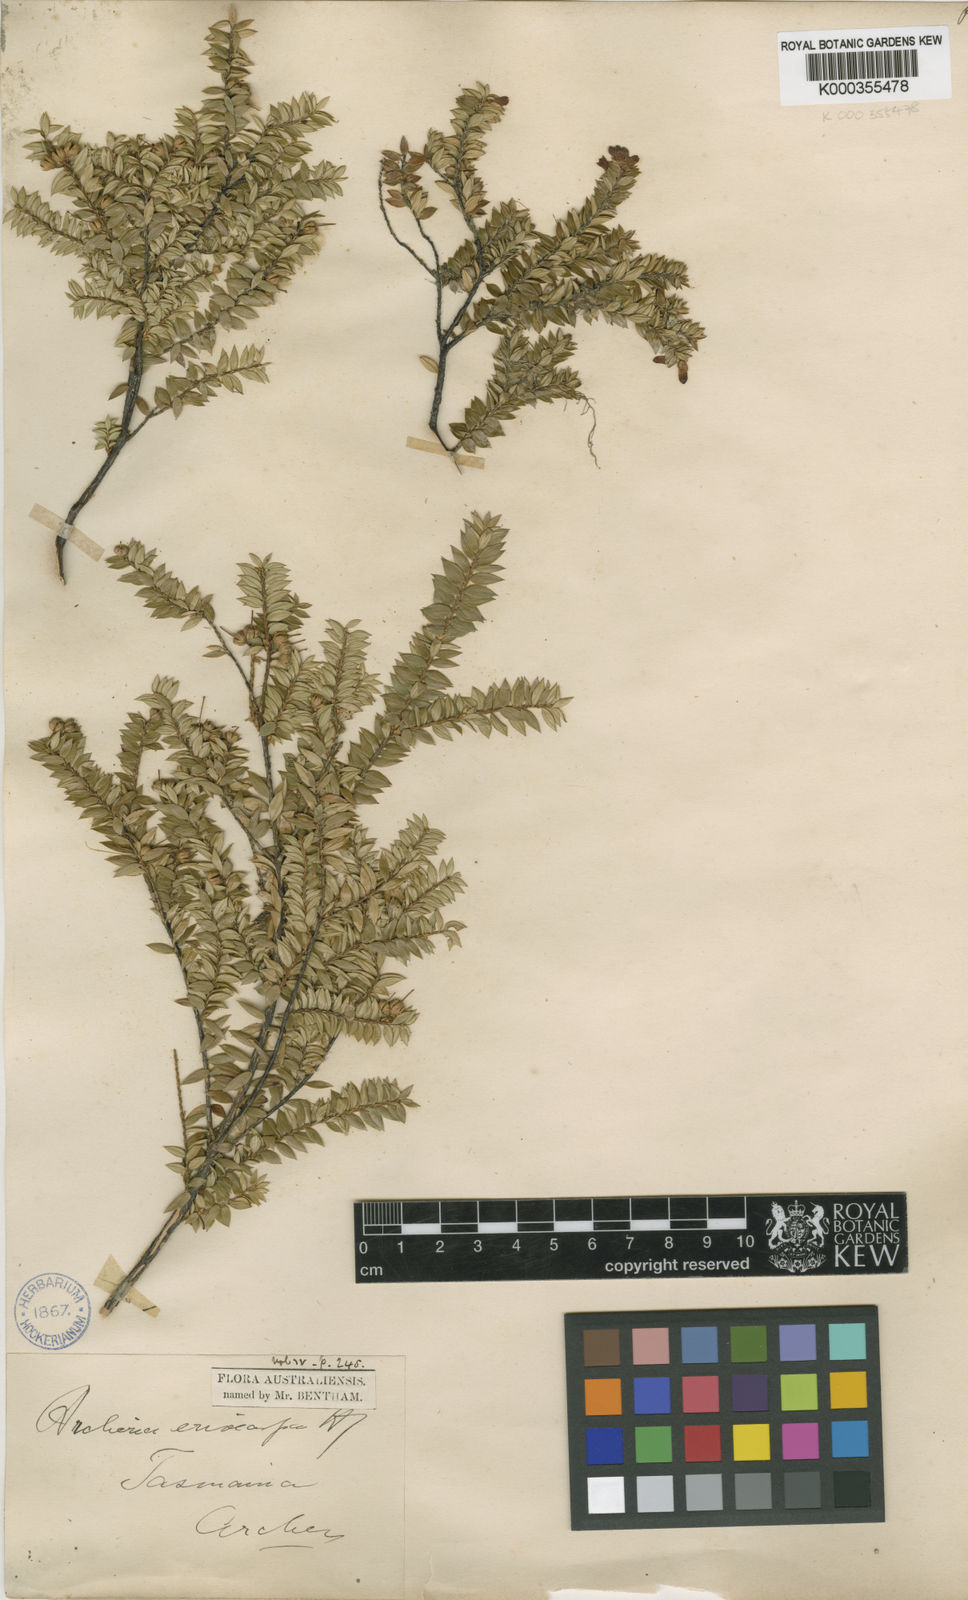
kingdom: Plantae
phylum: Tracheophyta
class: Magnoliopsida
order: Ericales
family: Ericaceae
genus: Archeria
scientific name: Archeria eriocarpa
